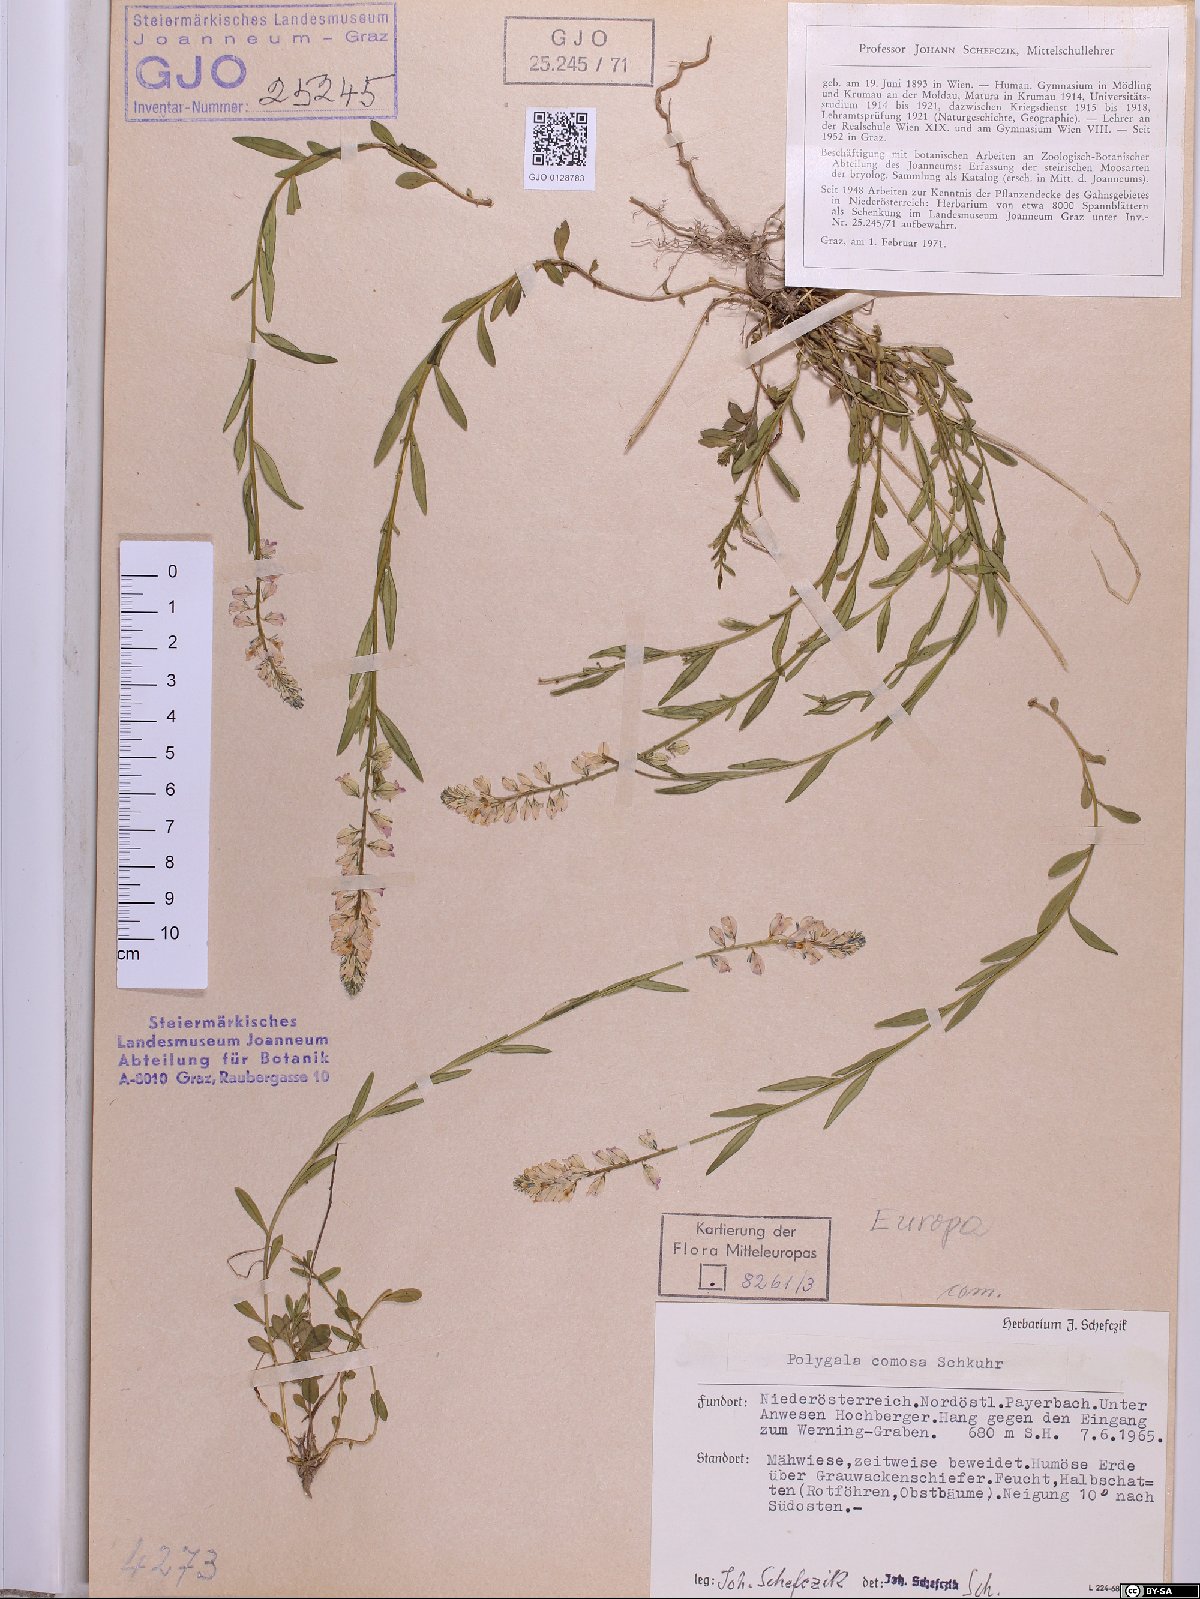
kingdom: Plantae
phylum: Tracheophyta
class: Magnoliopsida
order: Fabales
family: Polygalaceae
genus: Polygala
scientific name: Polygala comosa
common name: Tufted milkwort
